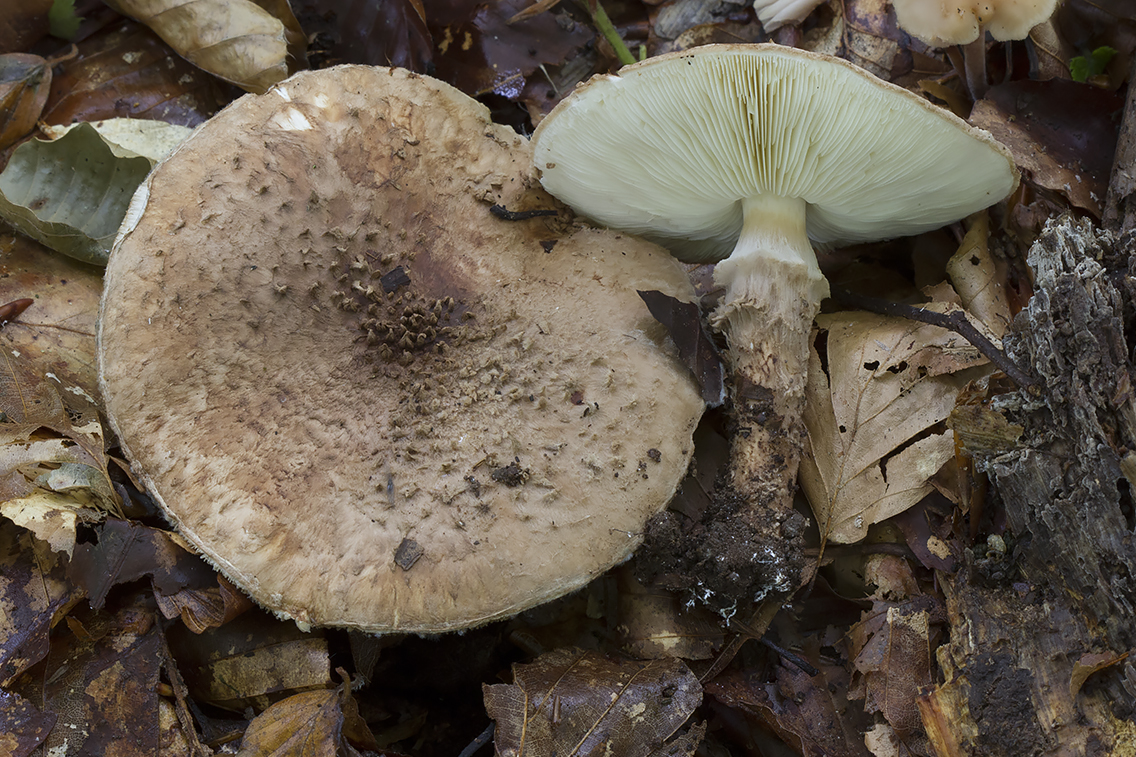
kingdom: Fungi
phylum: Basidiomycota
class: Agaricomycetes
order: Agaricales
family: Agaricaceae
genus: Echinoderma
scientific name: Echinoderma calcicola
